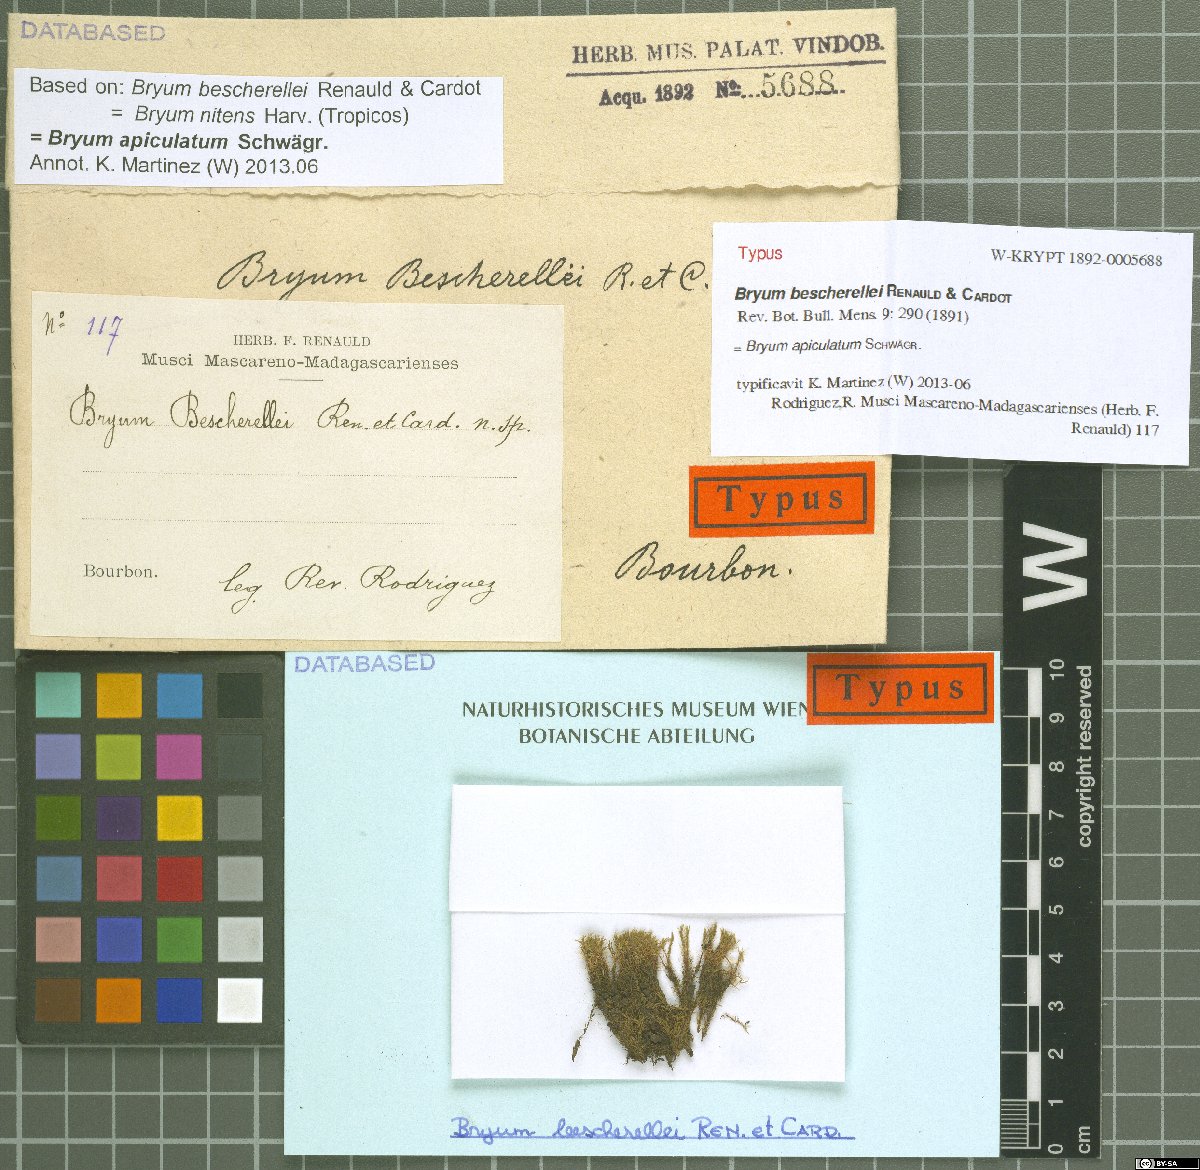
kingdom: Plantae
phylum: Bryophyta
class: Bryopsida
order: Bryales
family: Bryaceae
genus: Gemmabryum
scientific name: Gemmabryum apiculatum
